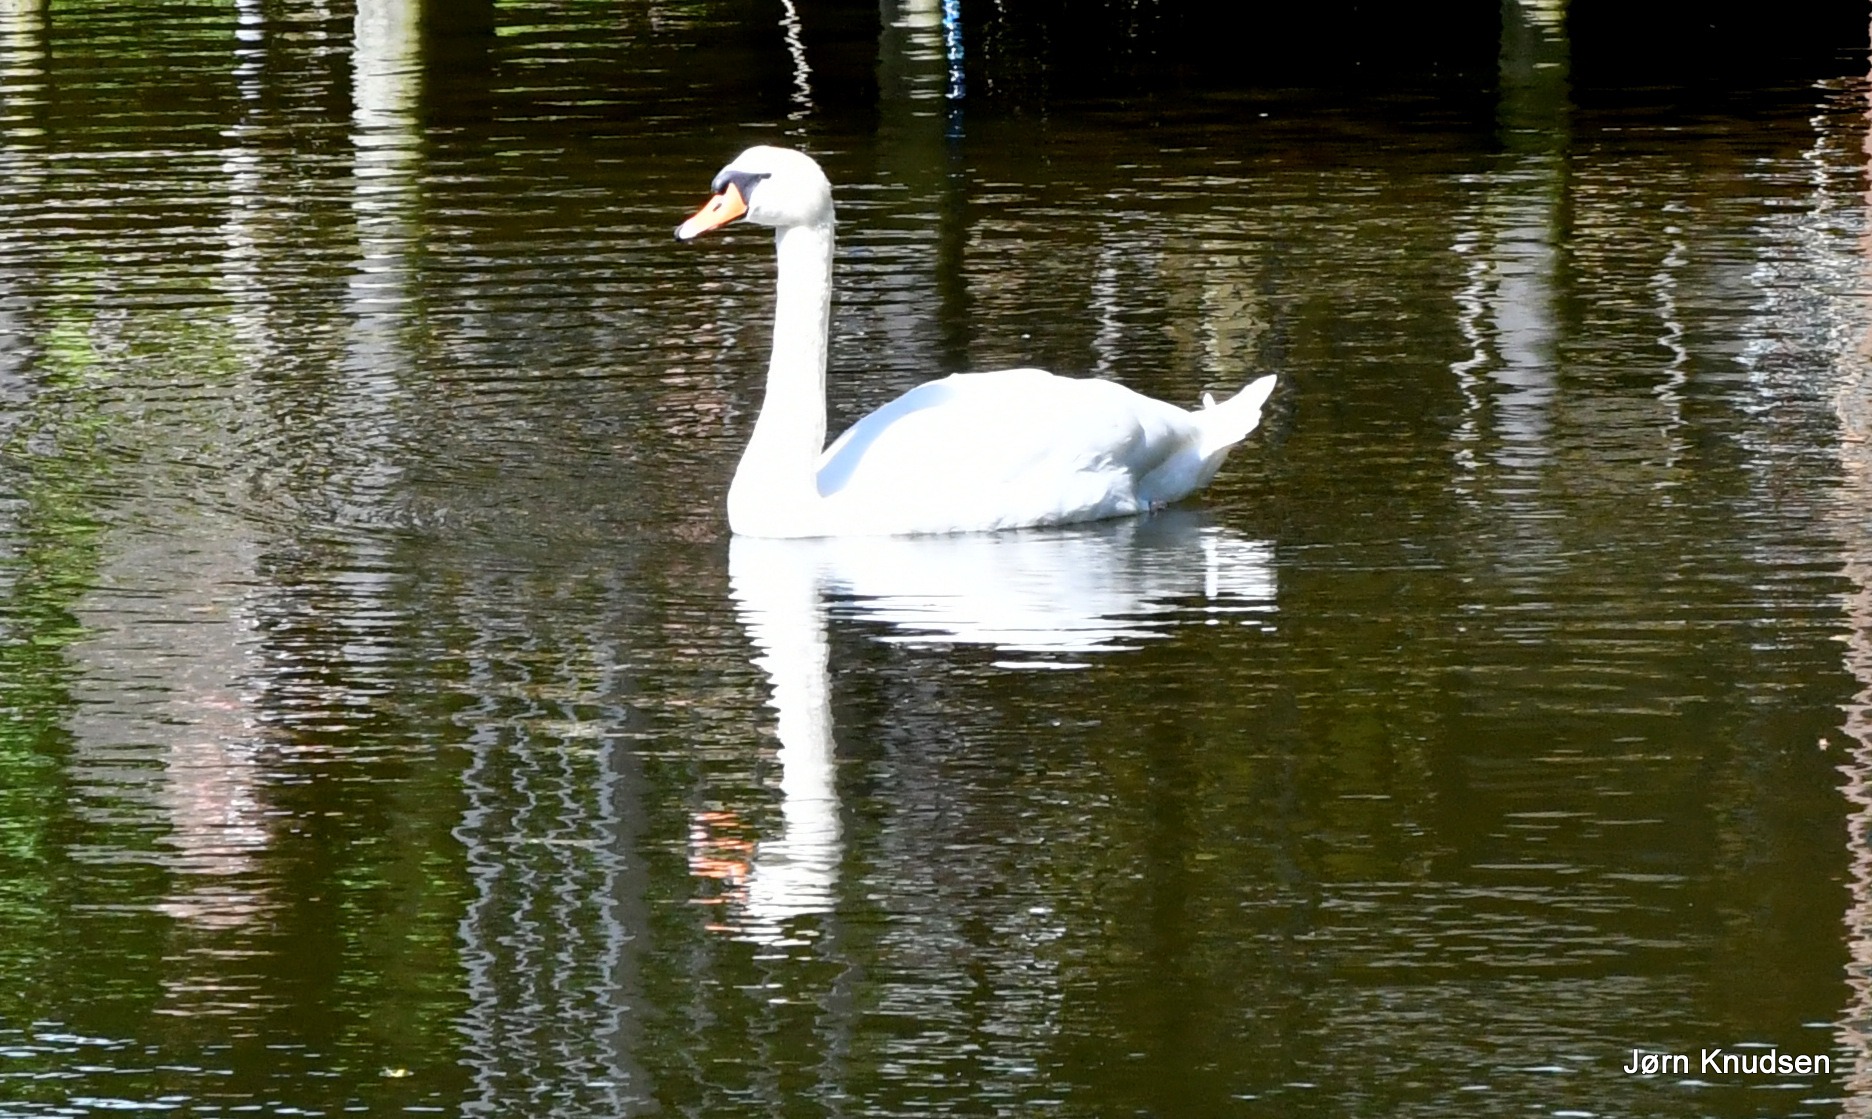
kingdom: Animalia
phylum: Chordata
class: Aves
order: Anseriformes
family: Anatidae
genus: Cygnus
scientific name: Cygnus olor
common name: Knopsvane
